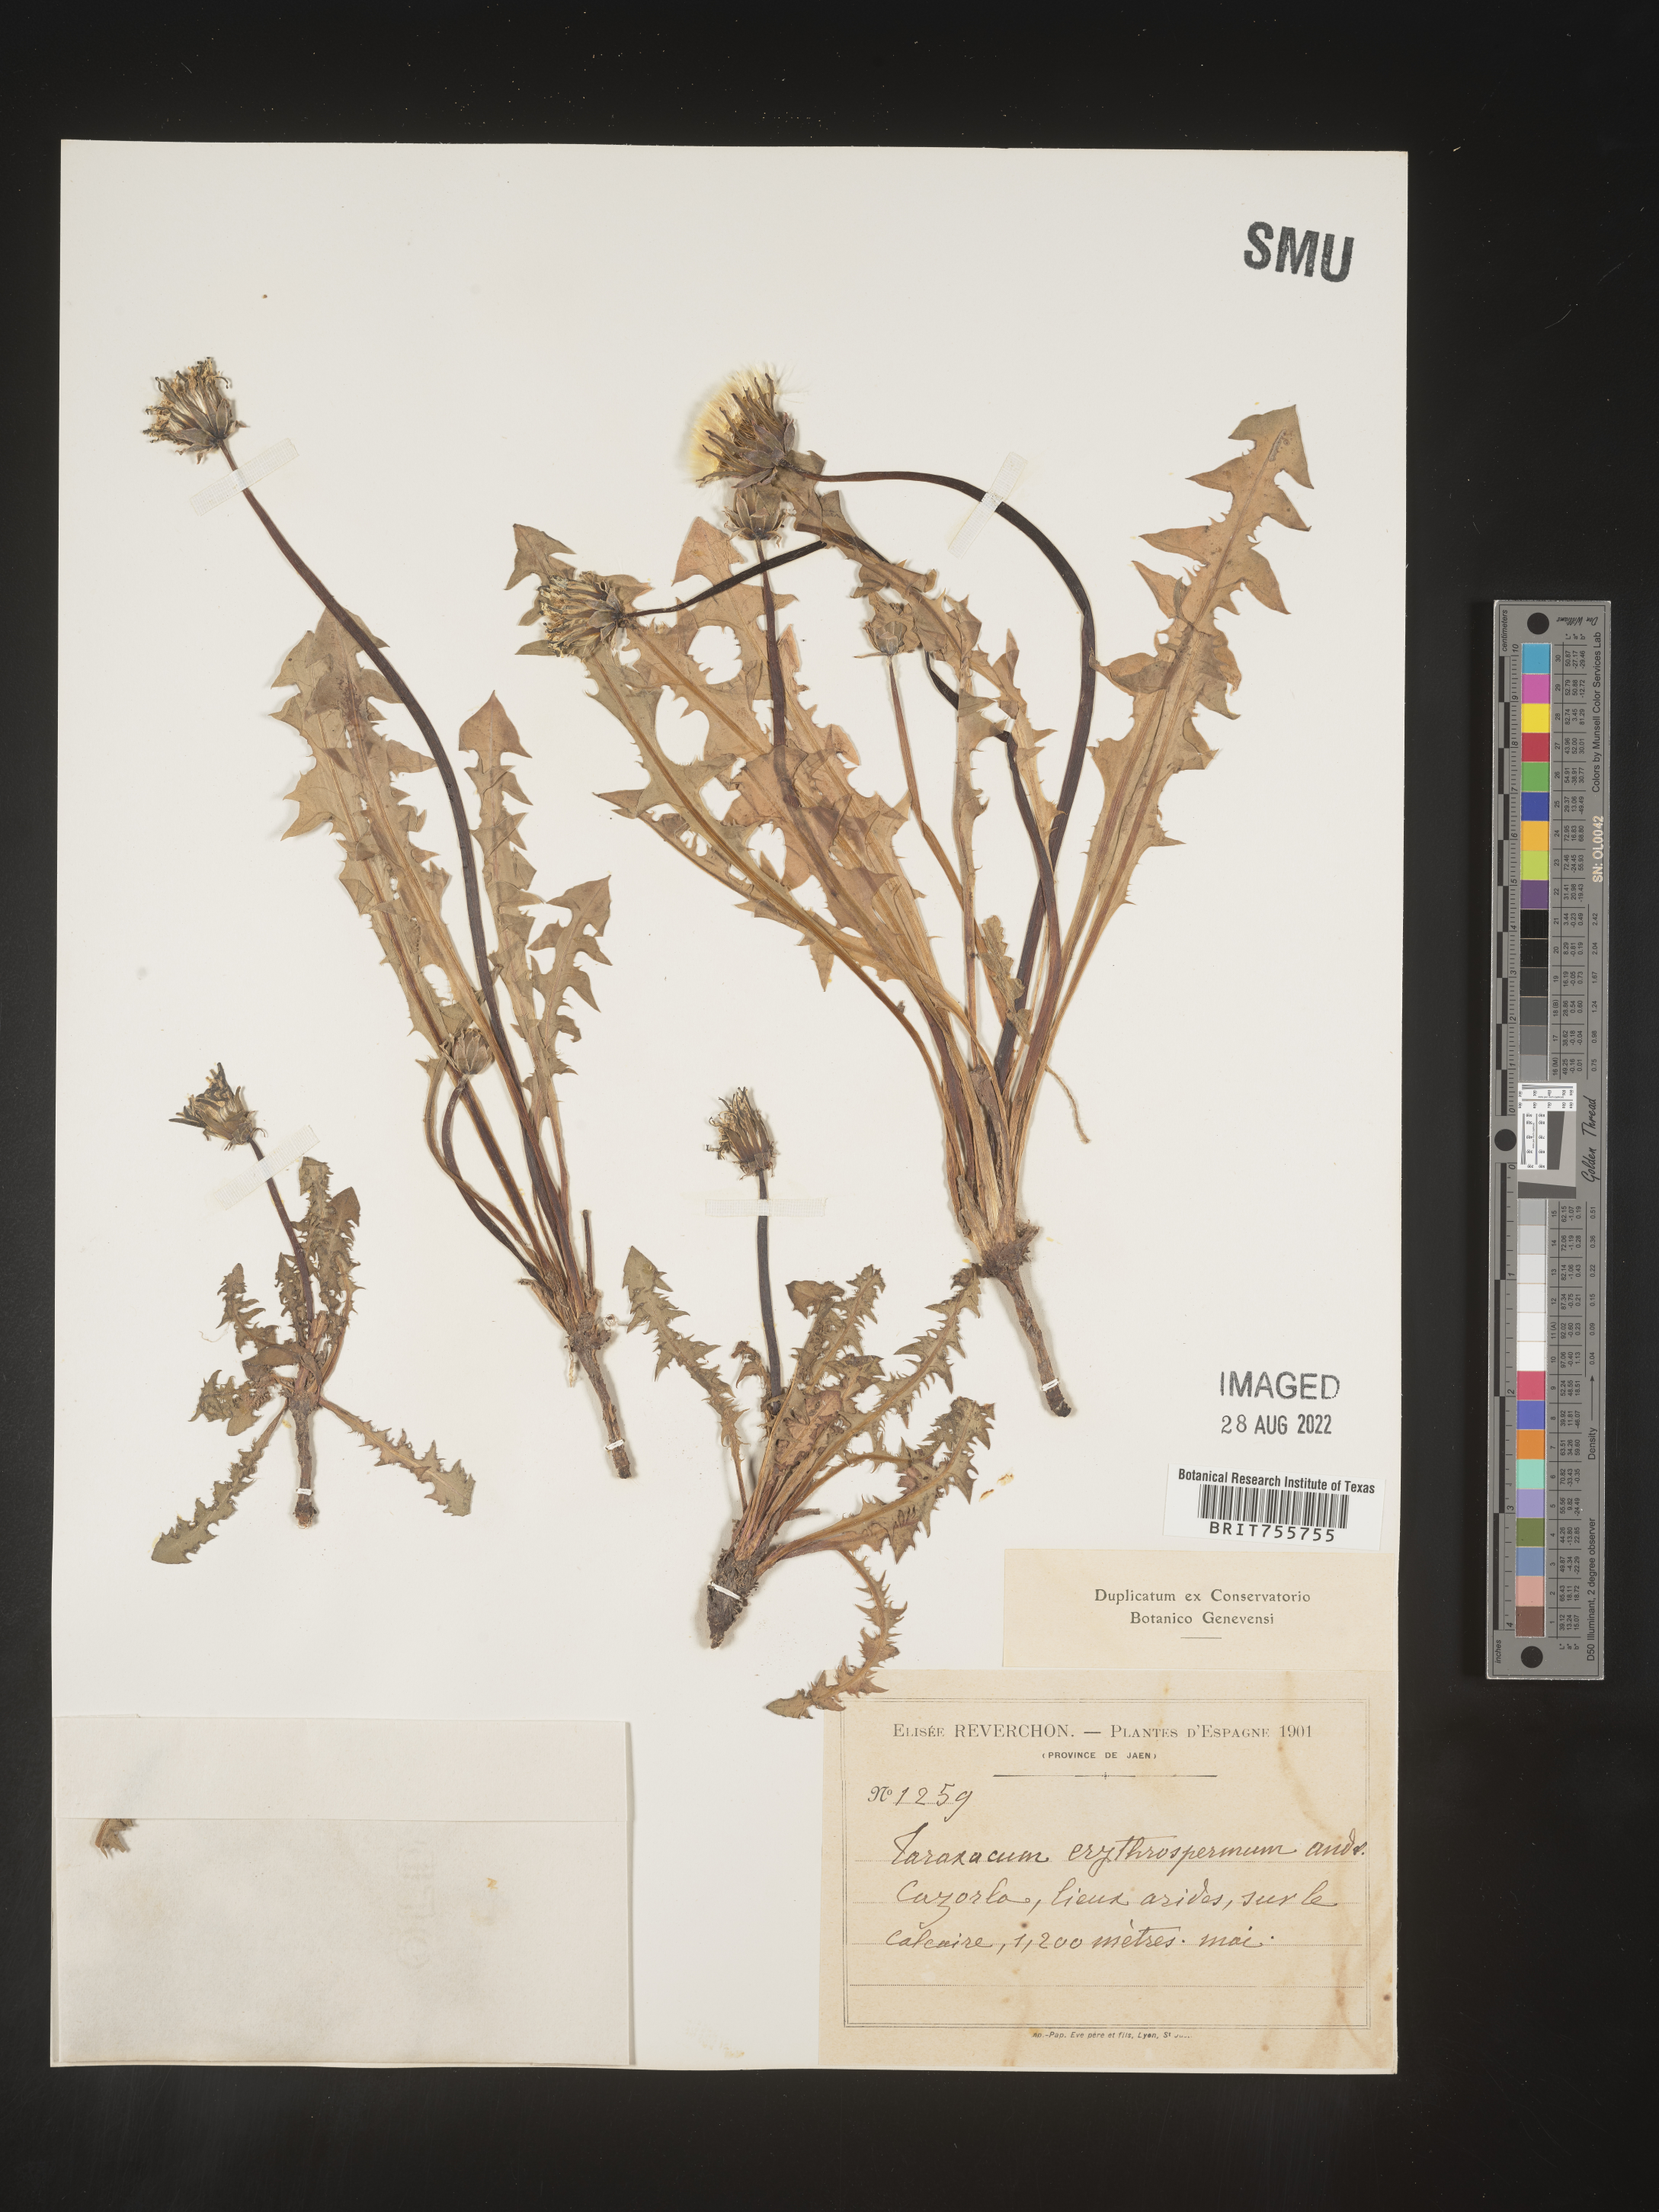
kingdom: Plantae
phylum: Tracheophyta
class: Magnoliopsida
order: Asterales
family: Asteraceae
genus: Taraxacum
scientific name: Taraxacum
